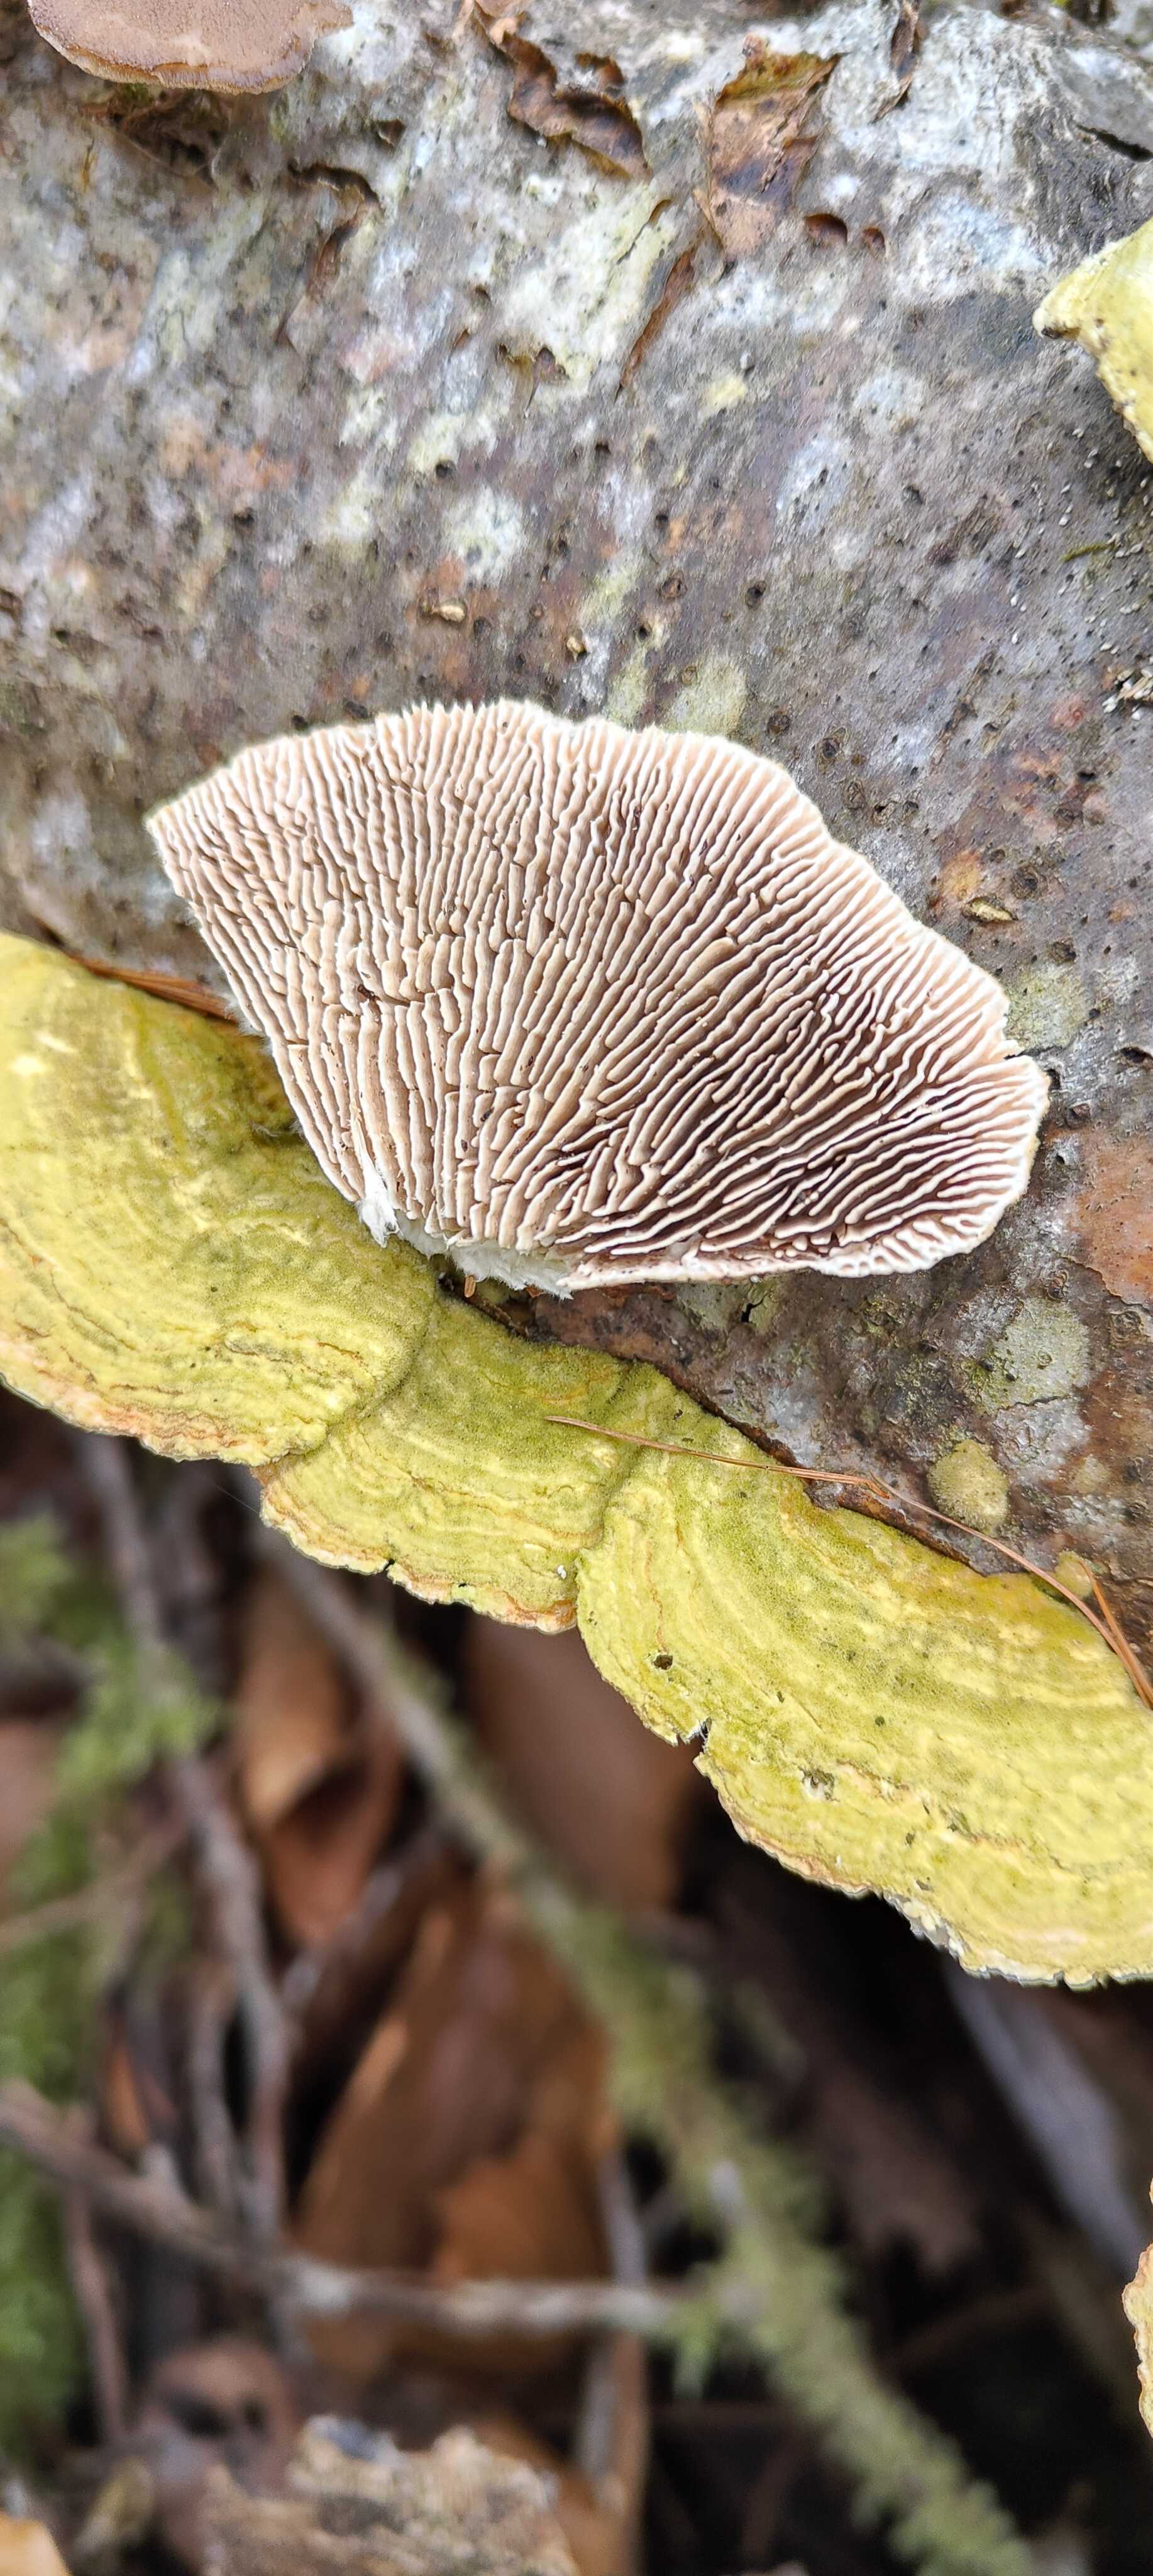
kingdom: Fungi
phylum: Basidiomycota
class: Agaricomycetes
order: Polyporales
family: Polyporaceae
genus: Lenzites
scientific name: Lenzites betulinus
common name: birke-læderporesvamp
